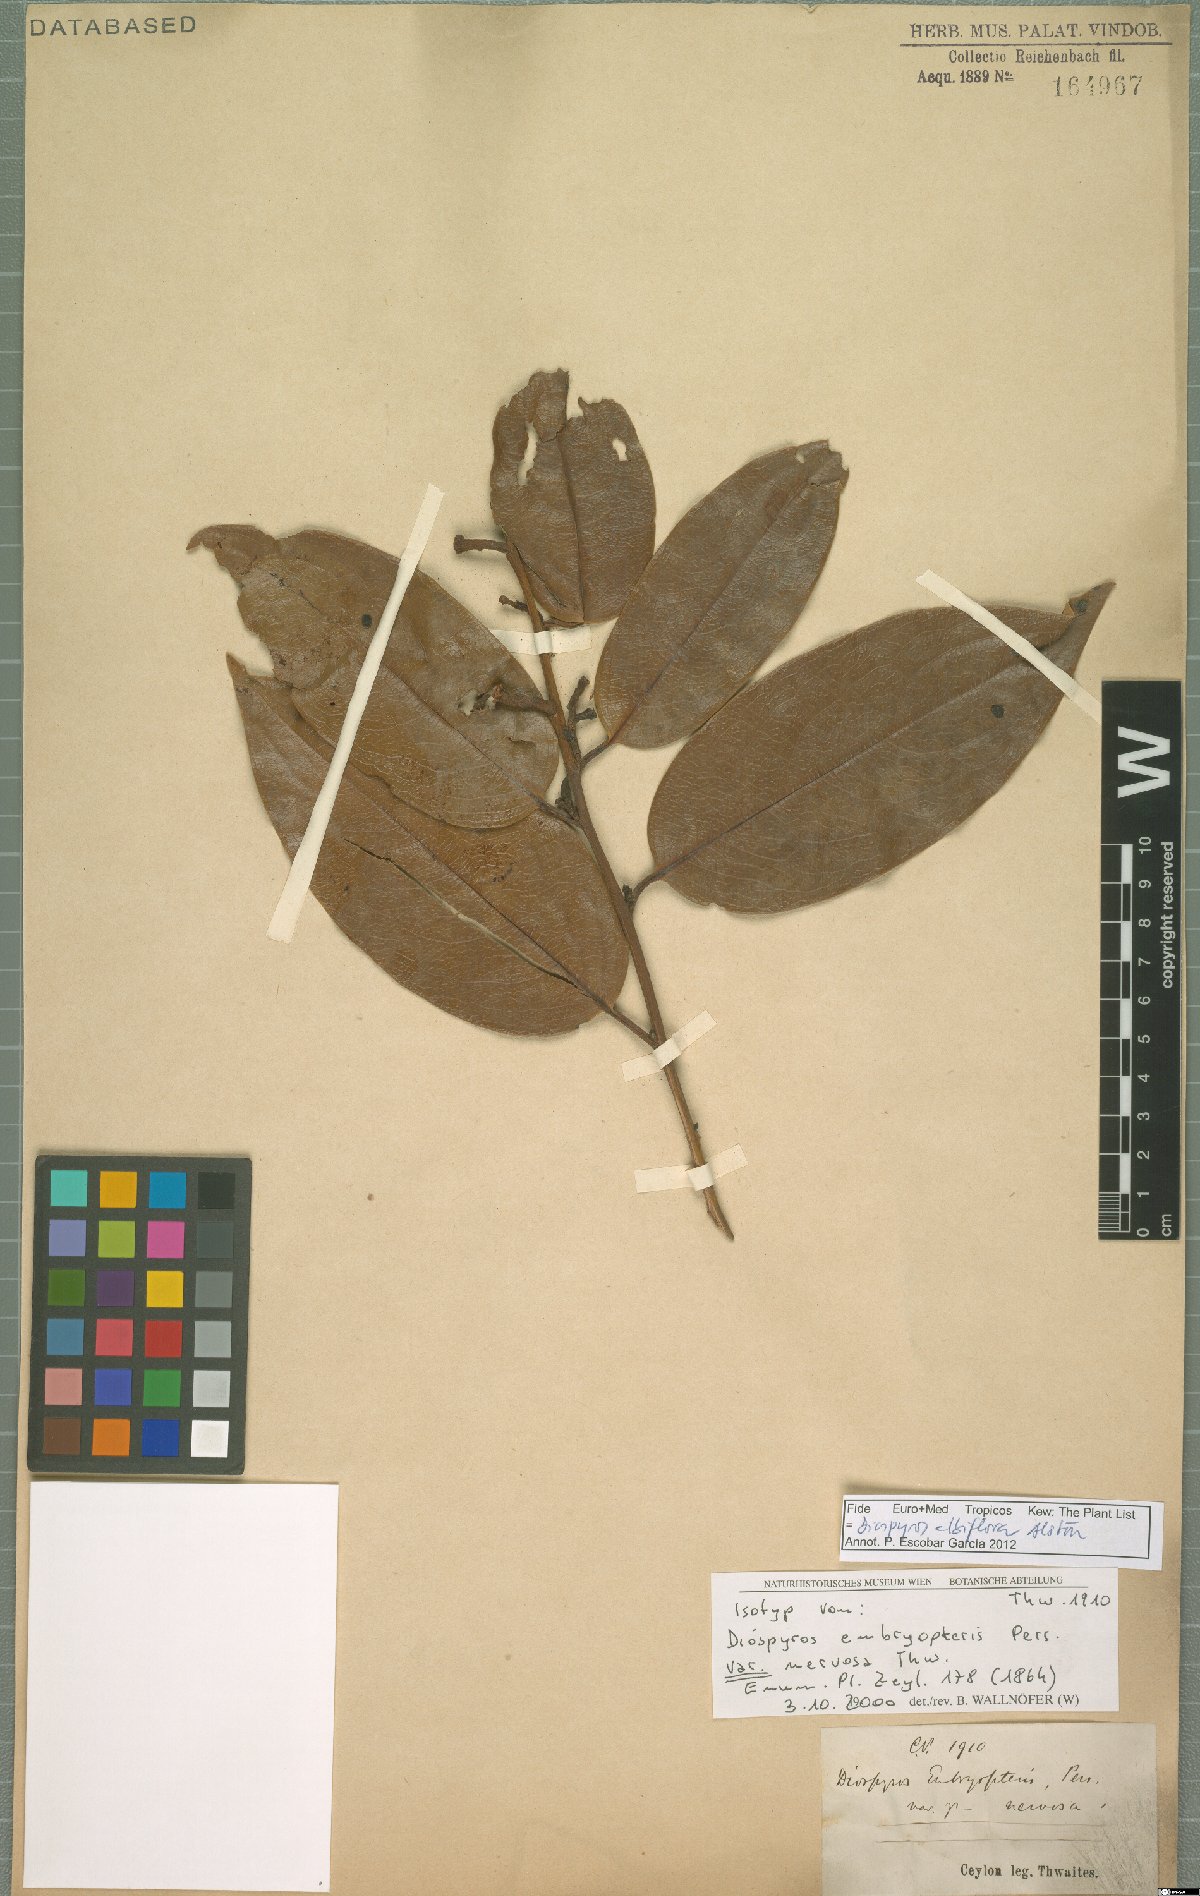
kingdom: Plantae
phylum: Tracheophyta
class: Magnoliopsida
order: Ericales
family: Ebenaceae
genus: Diospyros
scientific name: Diospyros albiflora
